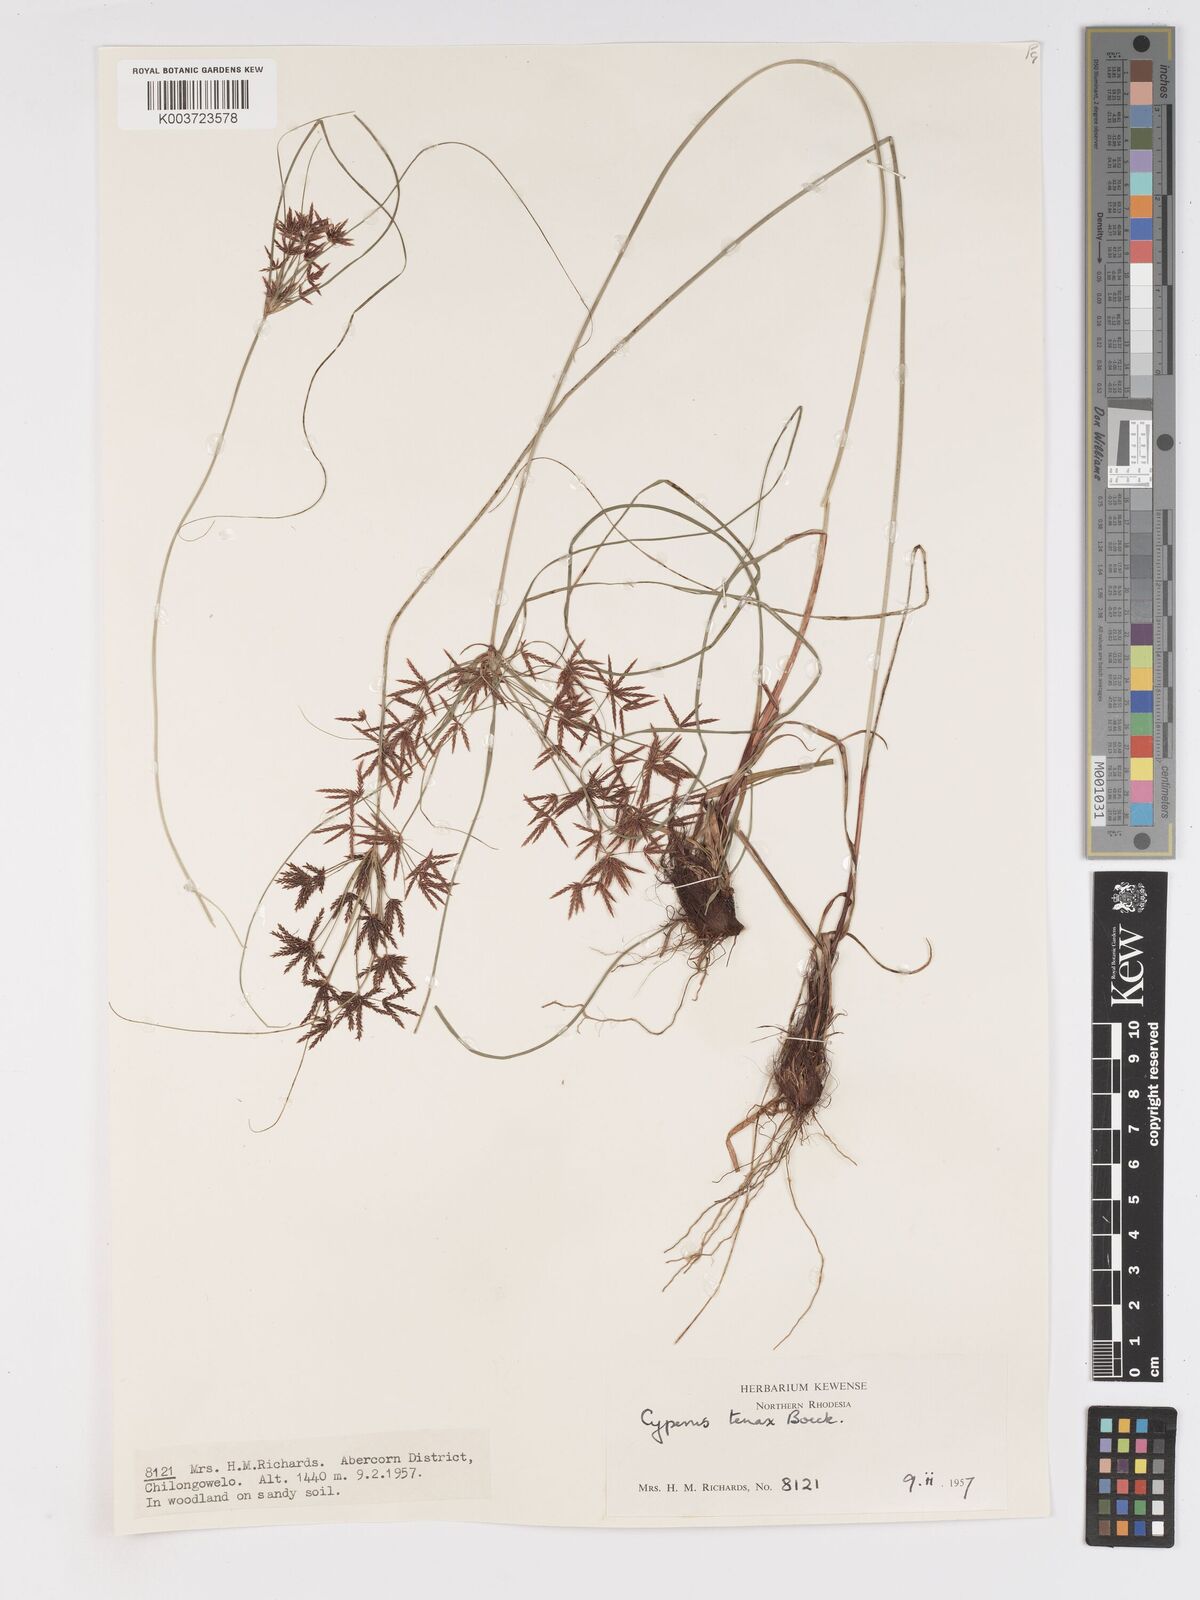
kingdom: Plantae
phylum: Tracheophyta
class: Liliopsida
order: Poales
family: Cyperaceae
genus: Cyperus
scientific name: Cyperus tenax
